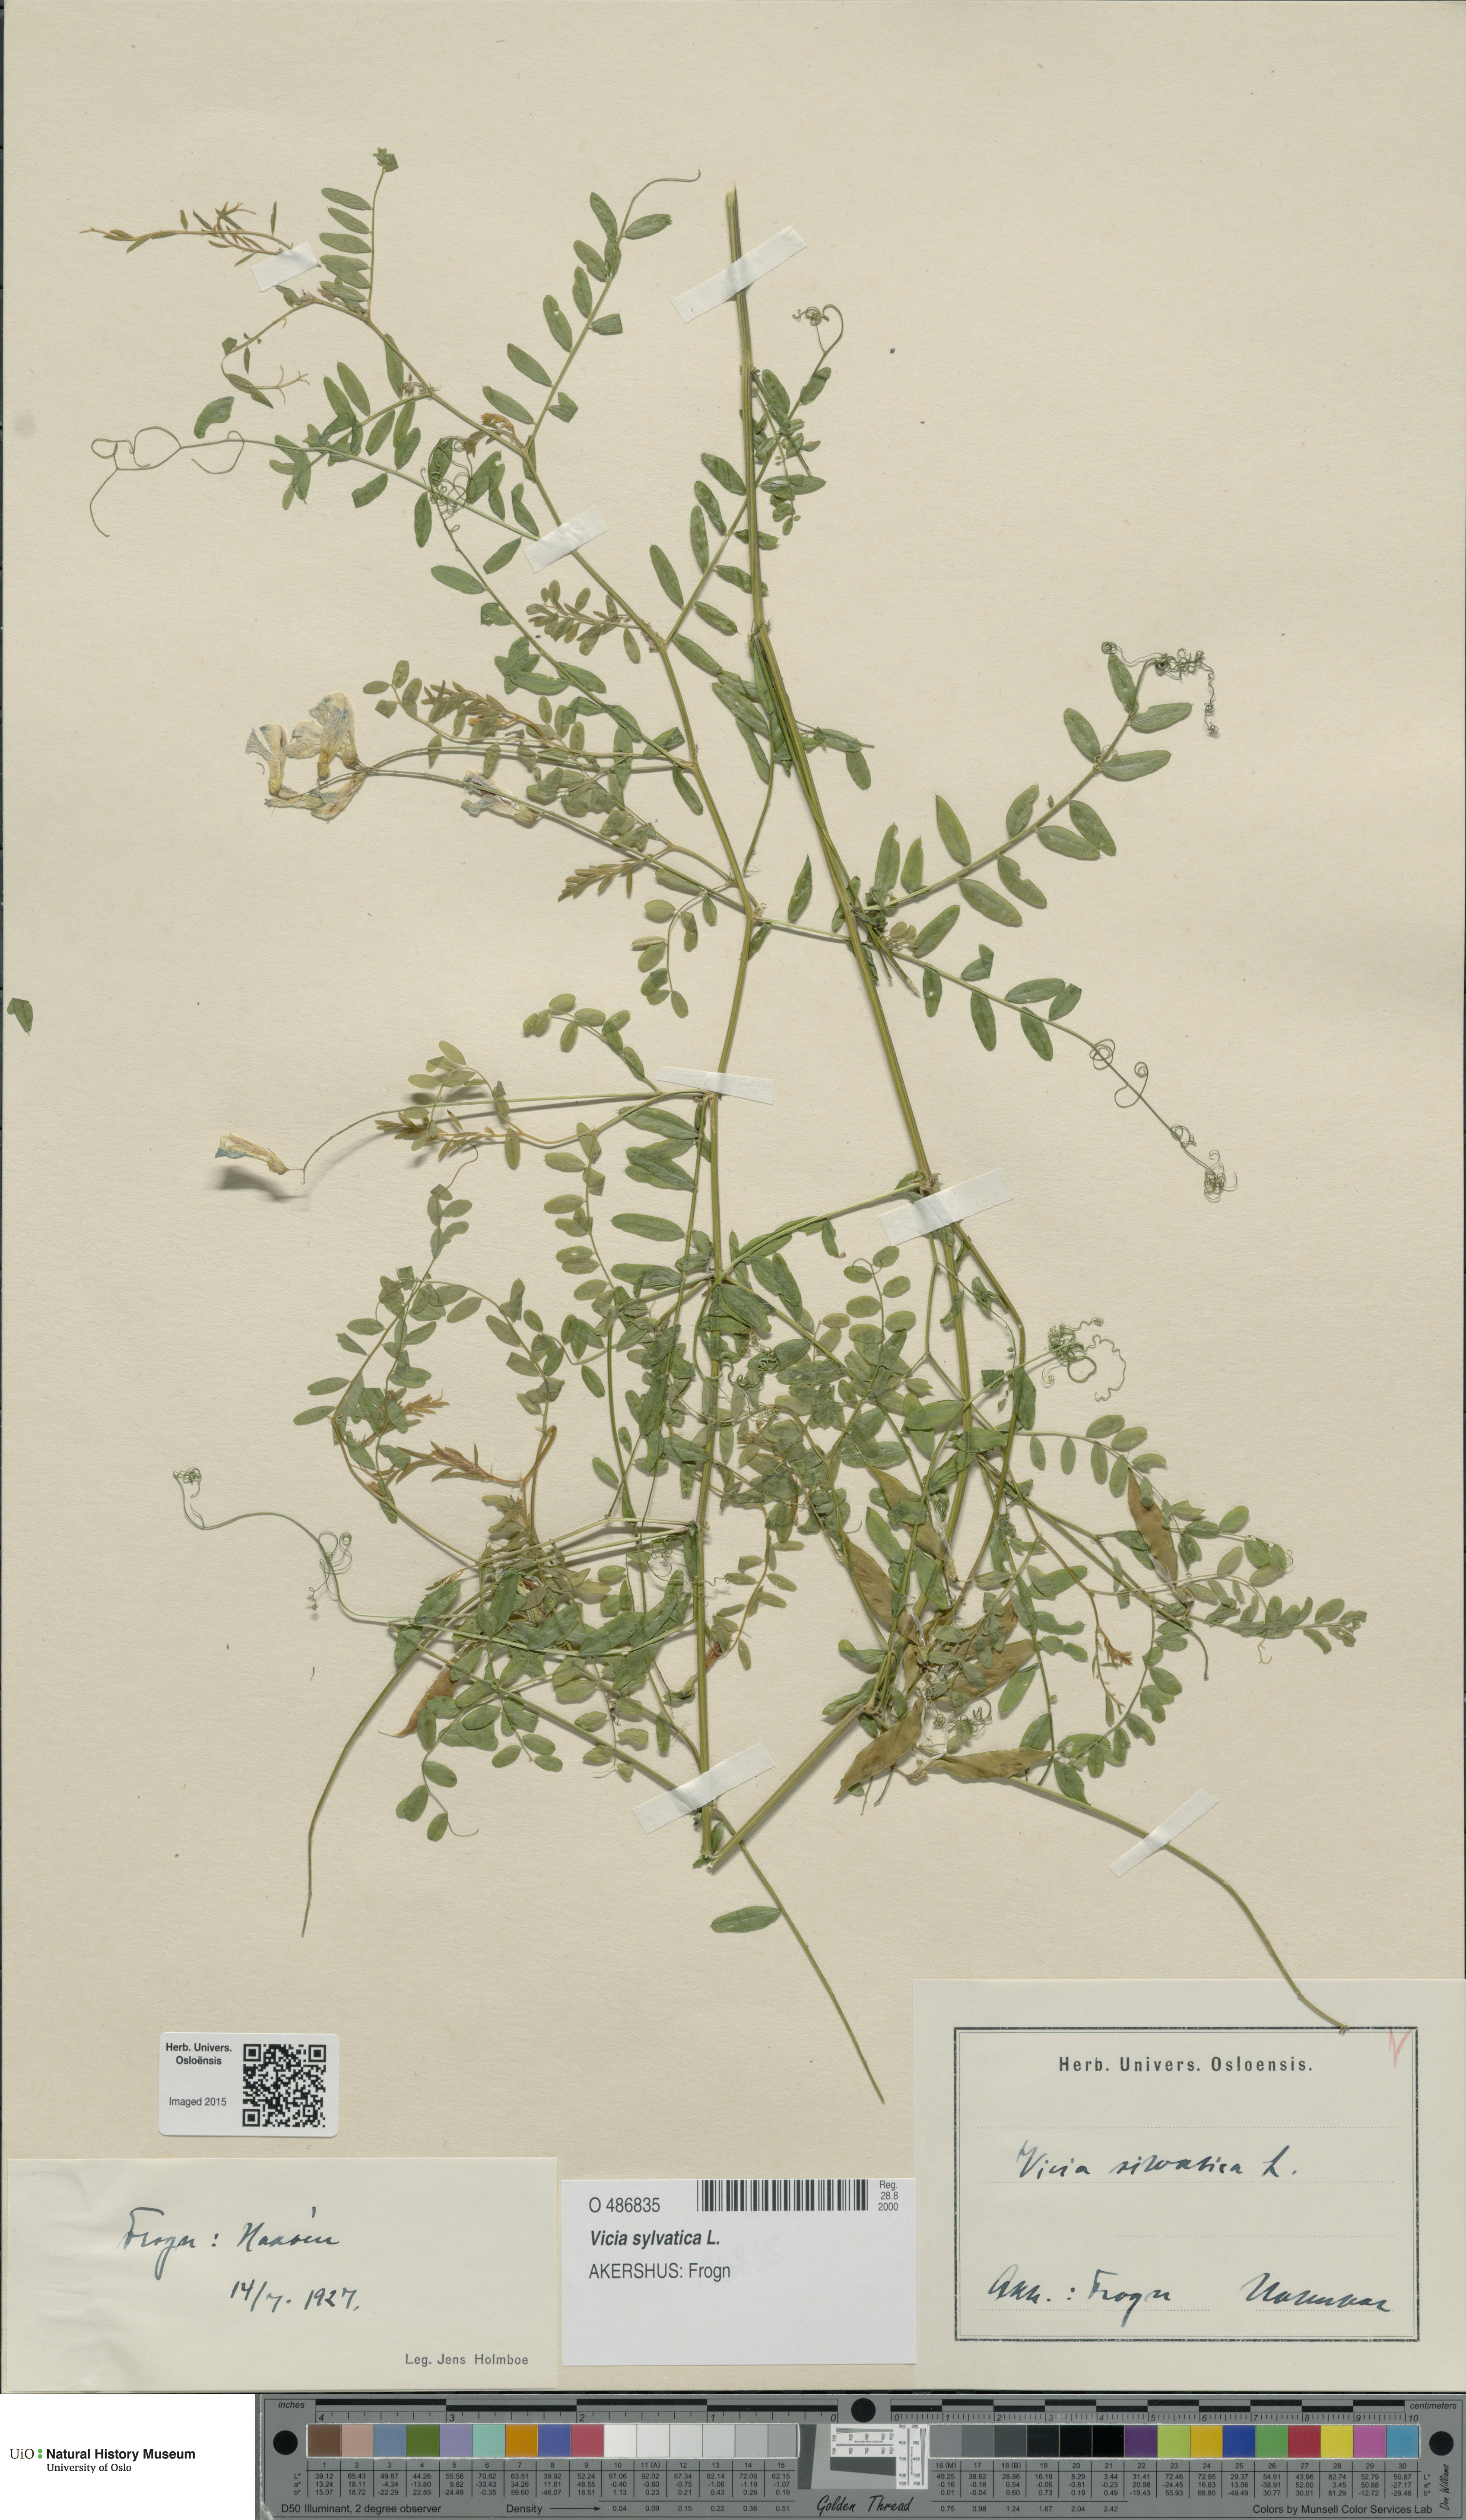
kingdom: Plantae
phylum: Tracheophyta
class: Magnoliopsida
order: Fabales
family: Fabaceae
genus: Vicia
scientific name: Vicia sylvatica
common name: Wood vetch
